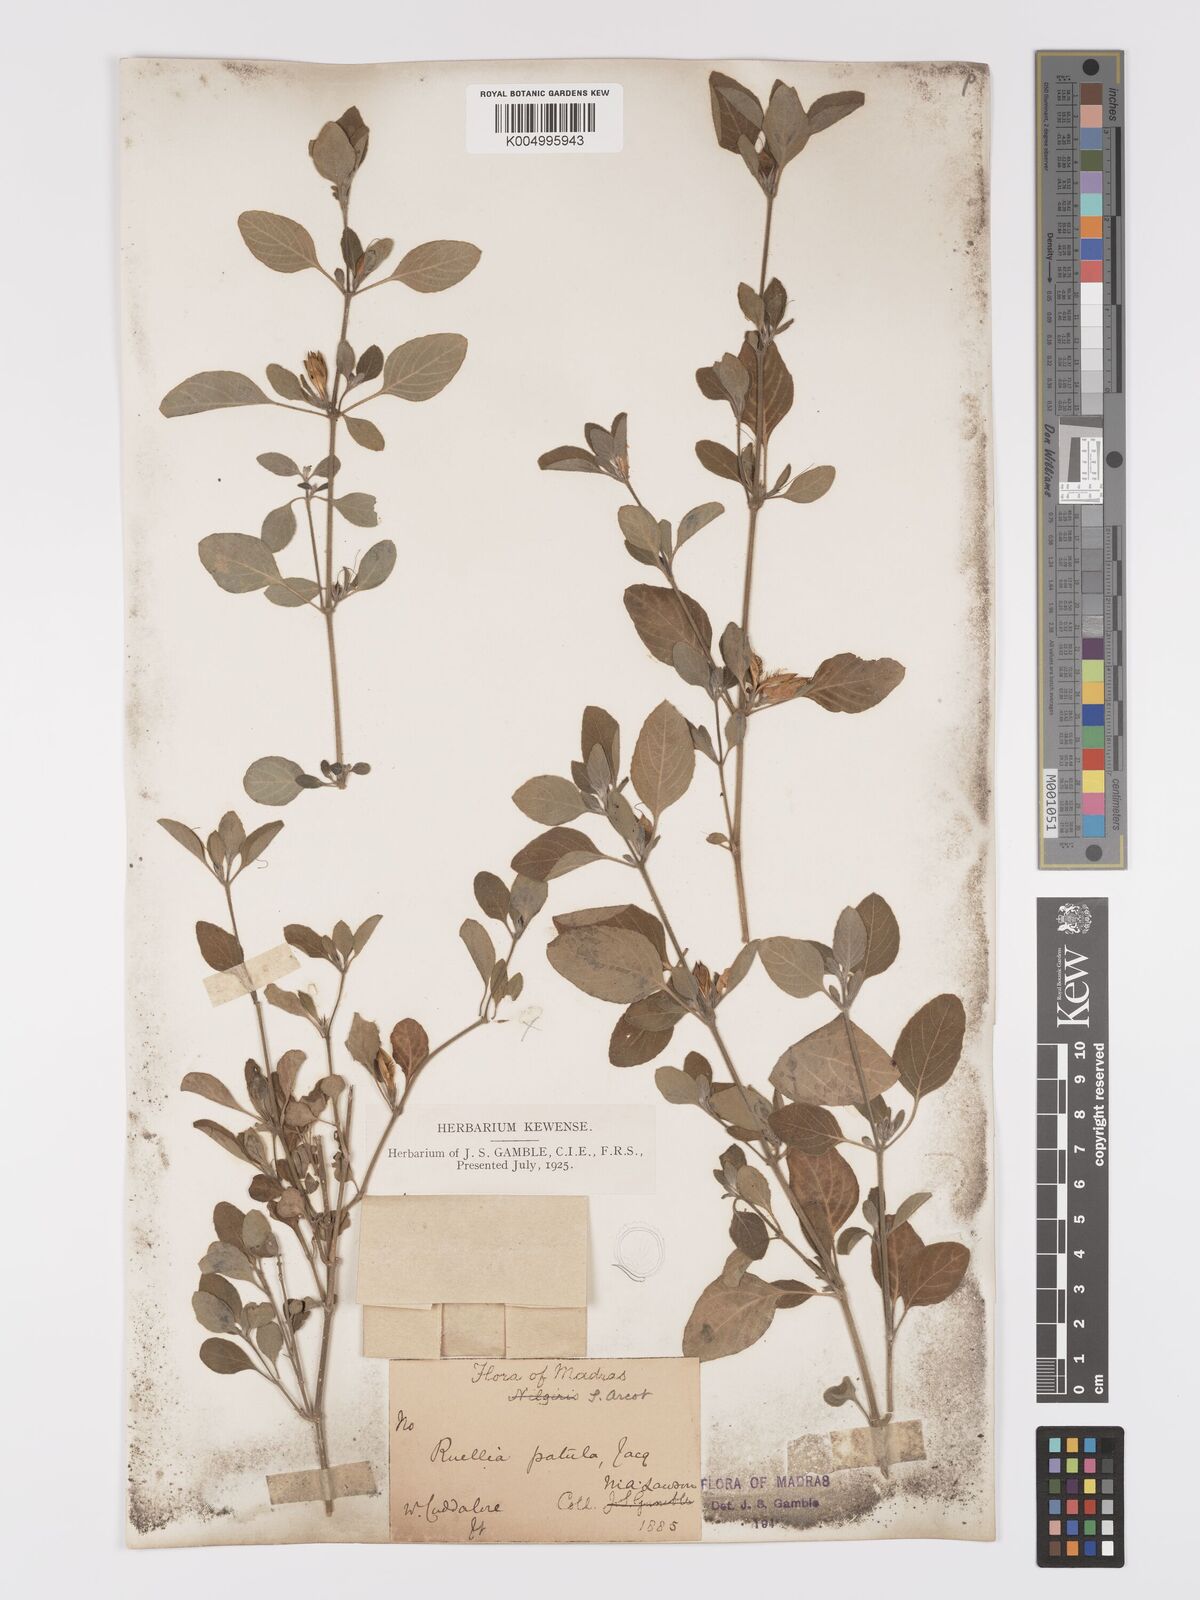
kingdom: Plantae
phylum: Tracheophyta
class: Magnoliopsida
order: Lamiales
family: Acanthaceae
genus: Ruellia
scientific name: Ruellia pseudopatula
